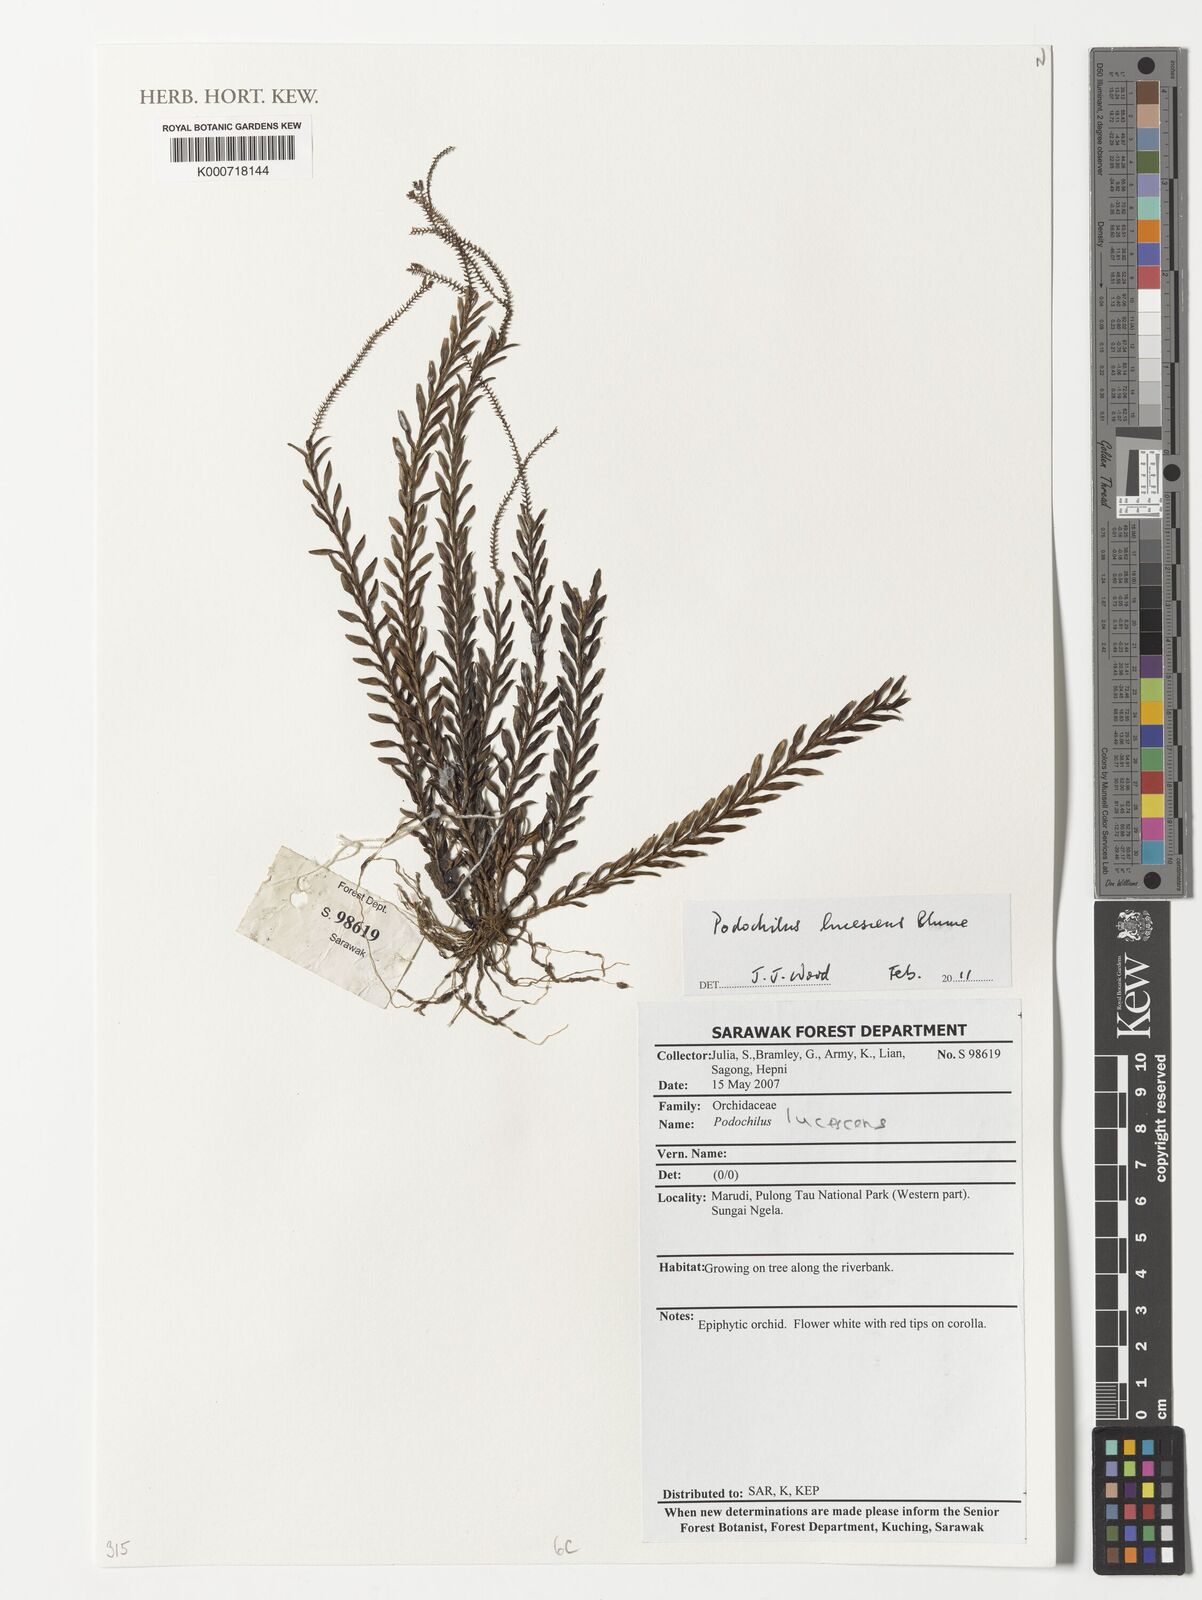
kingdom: Plantae
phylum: Tracheophyta
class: Liliopsida
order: Asparagales
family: Orchidaceae
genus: Podochilus
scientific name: Podochilus lucescens
